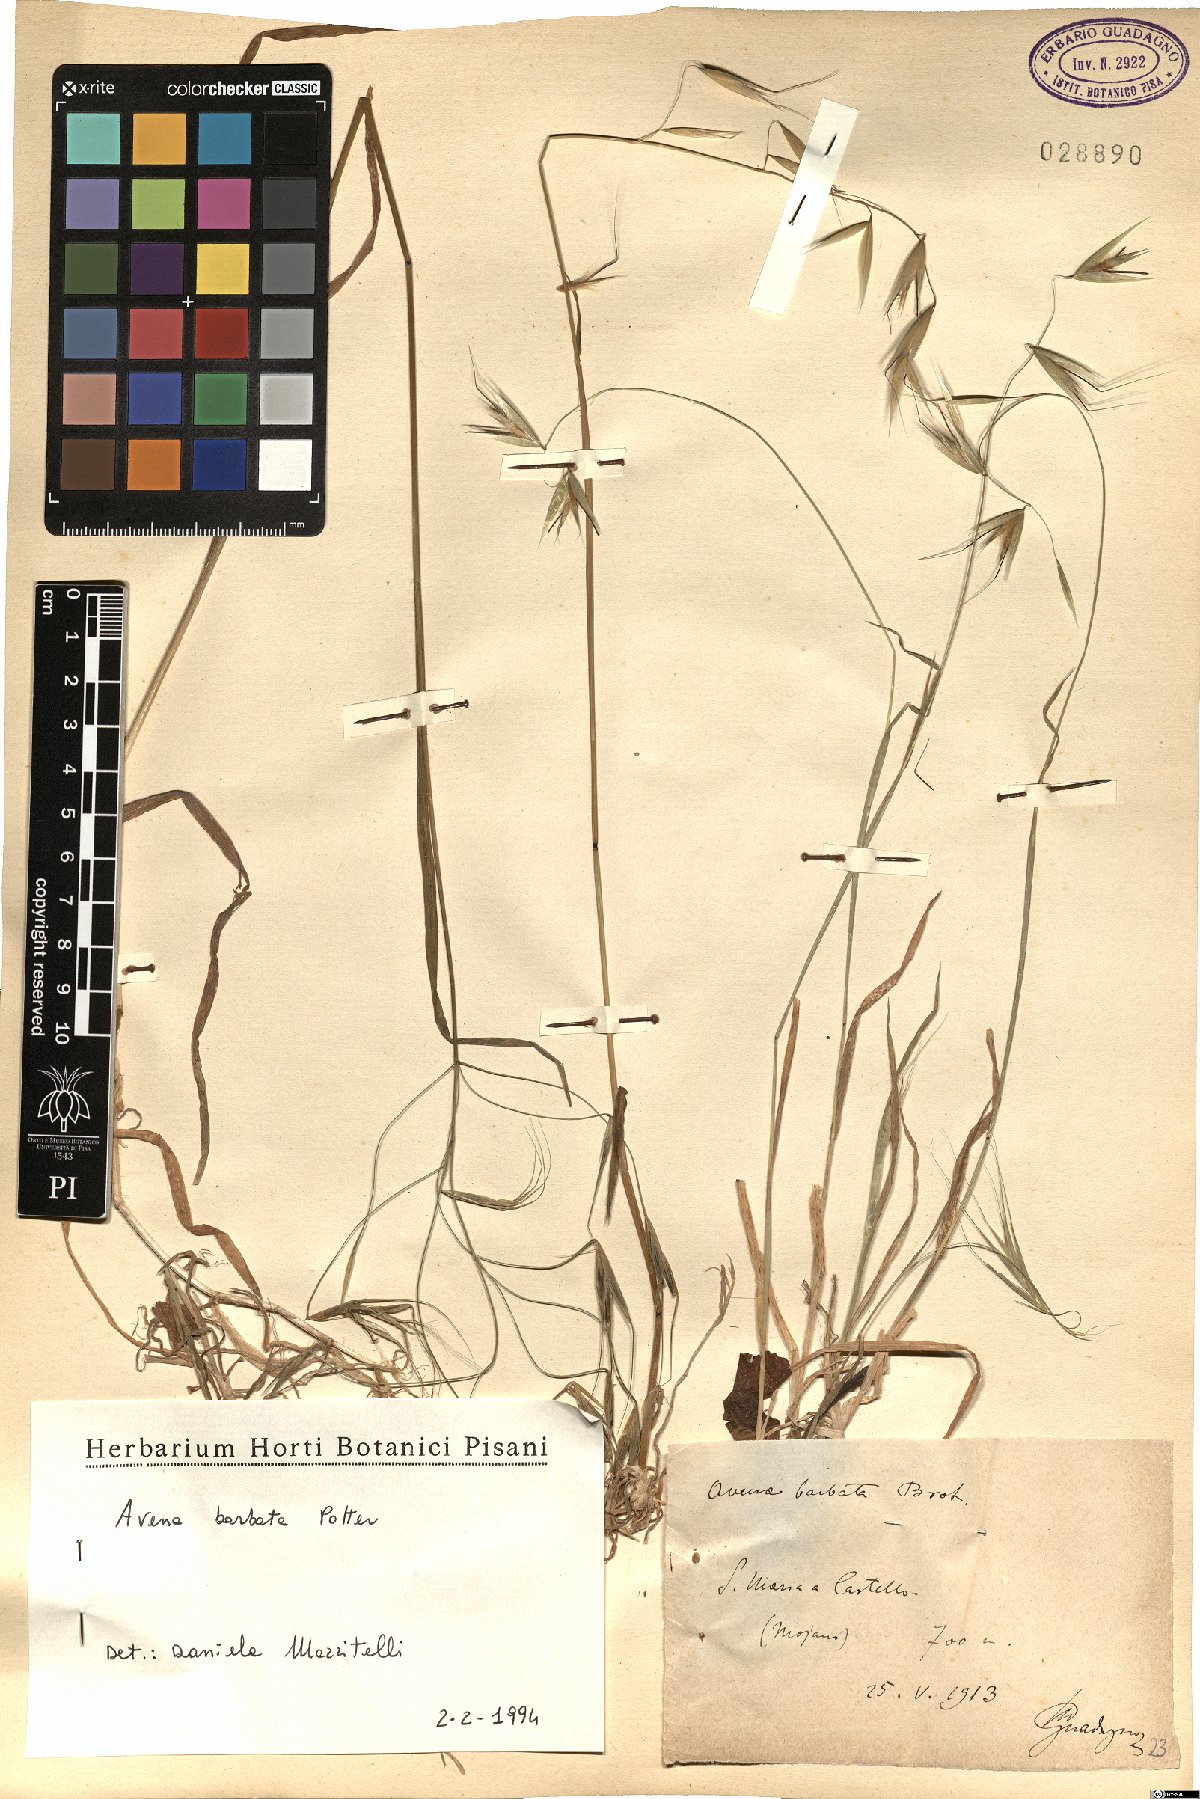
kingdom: Plantae
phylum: Tracheophyta
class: Liliopsida
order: Poales
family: Poaceae
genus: Avena
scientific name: Avena barbata
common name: Slender oat
